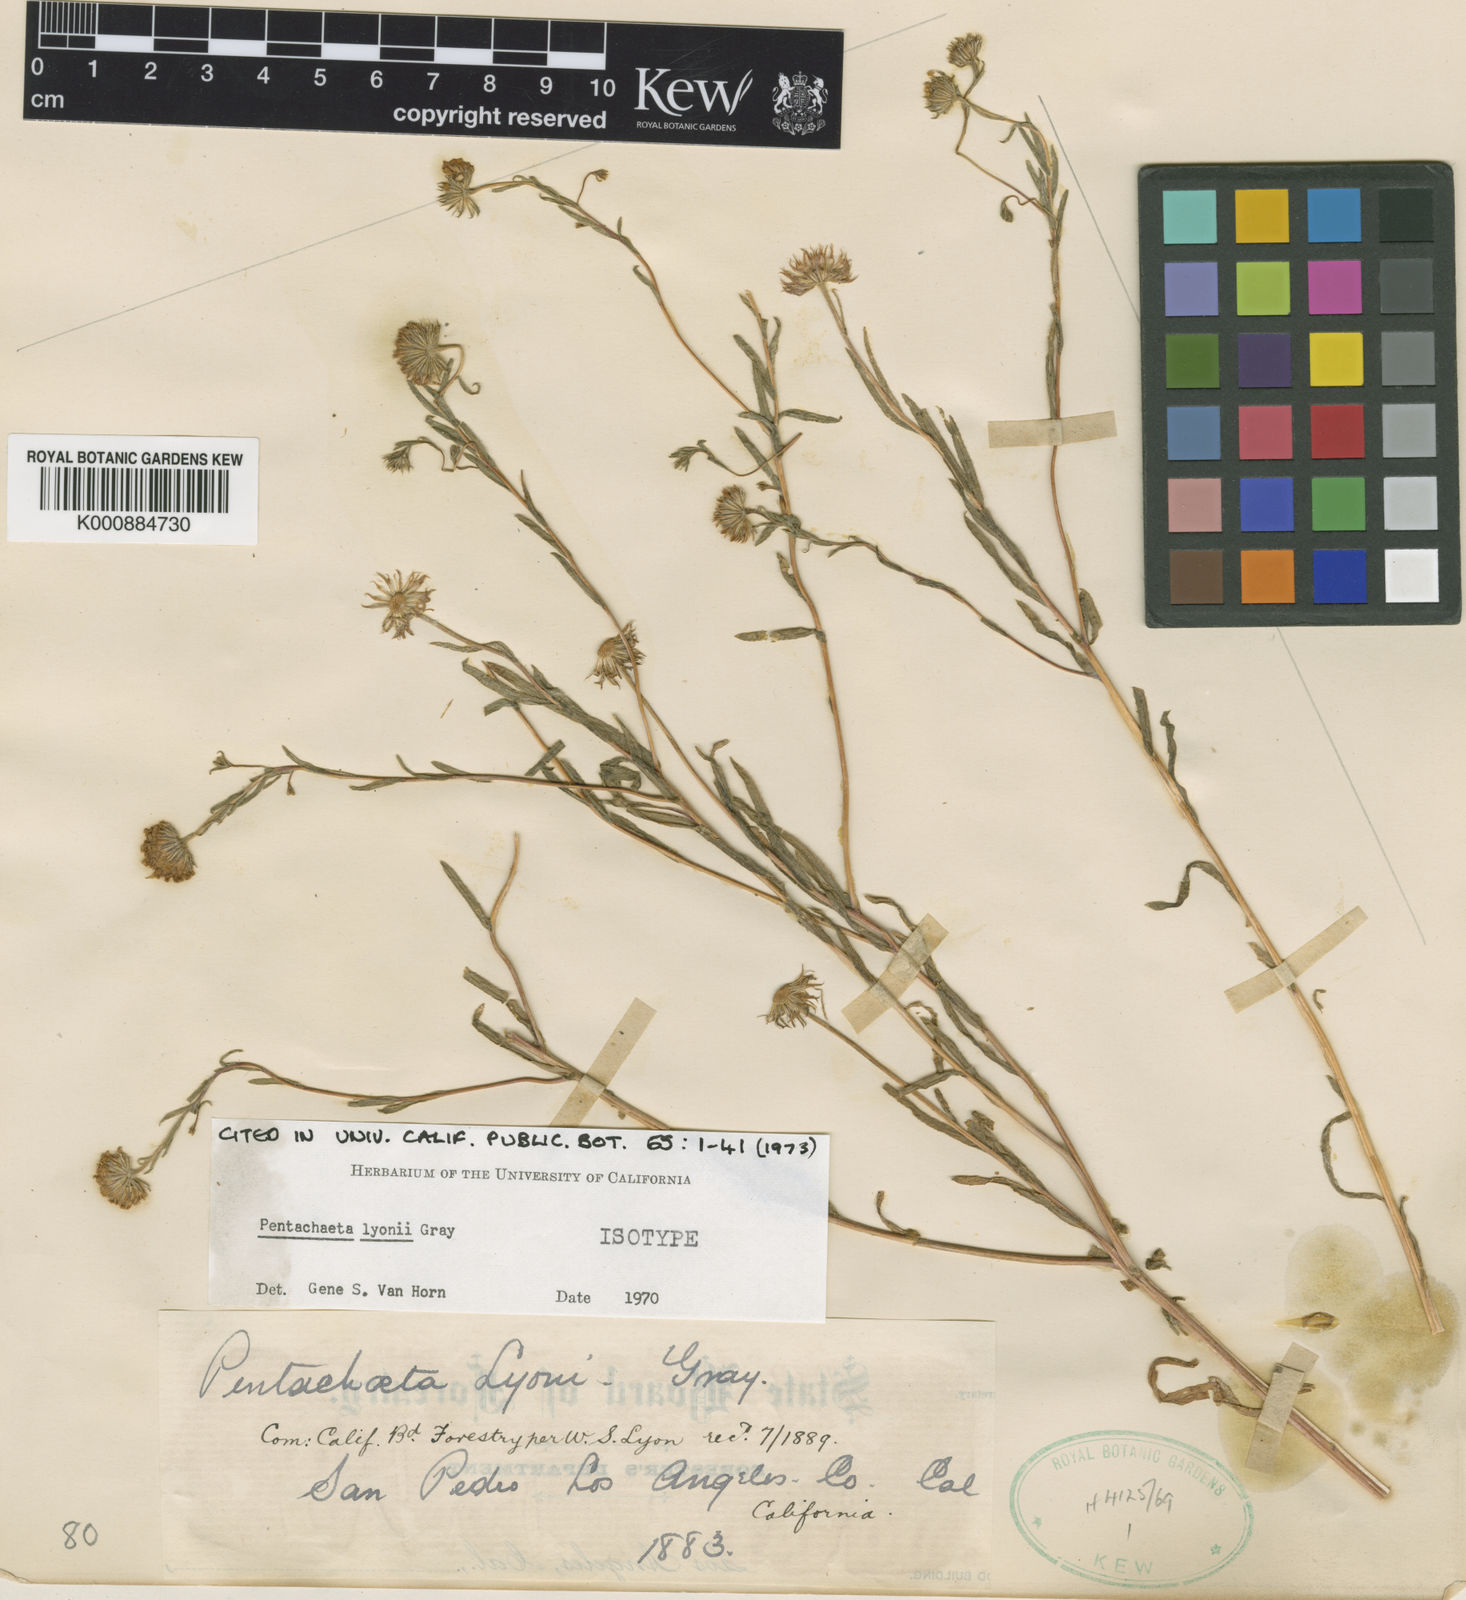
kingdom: Plantae
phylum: Tracheophyta
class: Magnoliopsida
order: Asterales
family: Asteraceae
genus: Pentachaeta
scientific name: Pentachaeta
